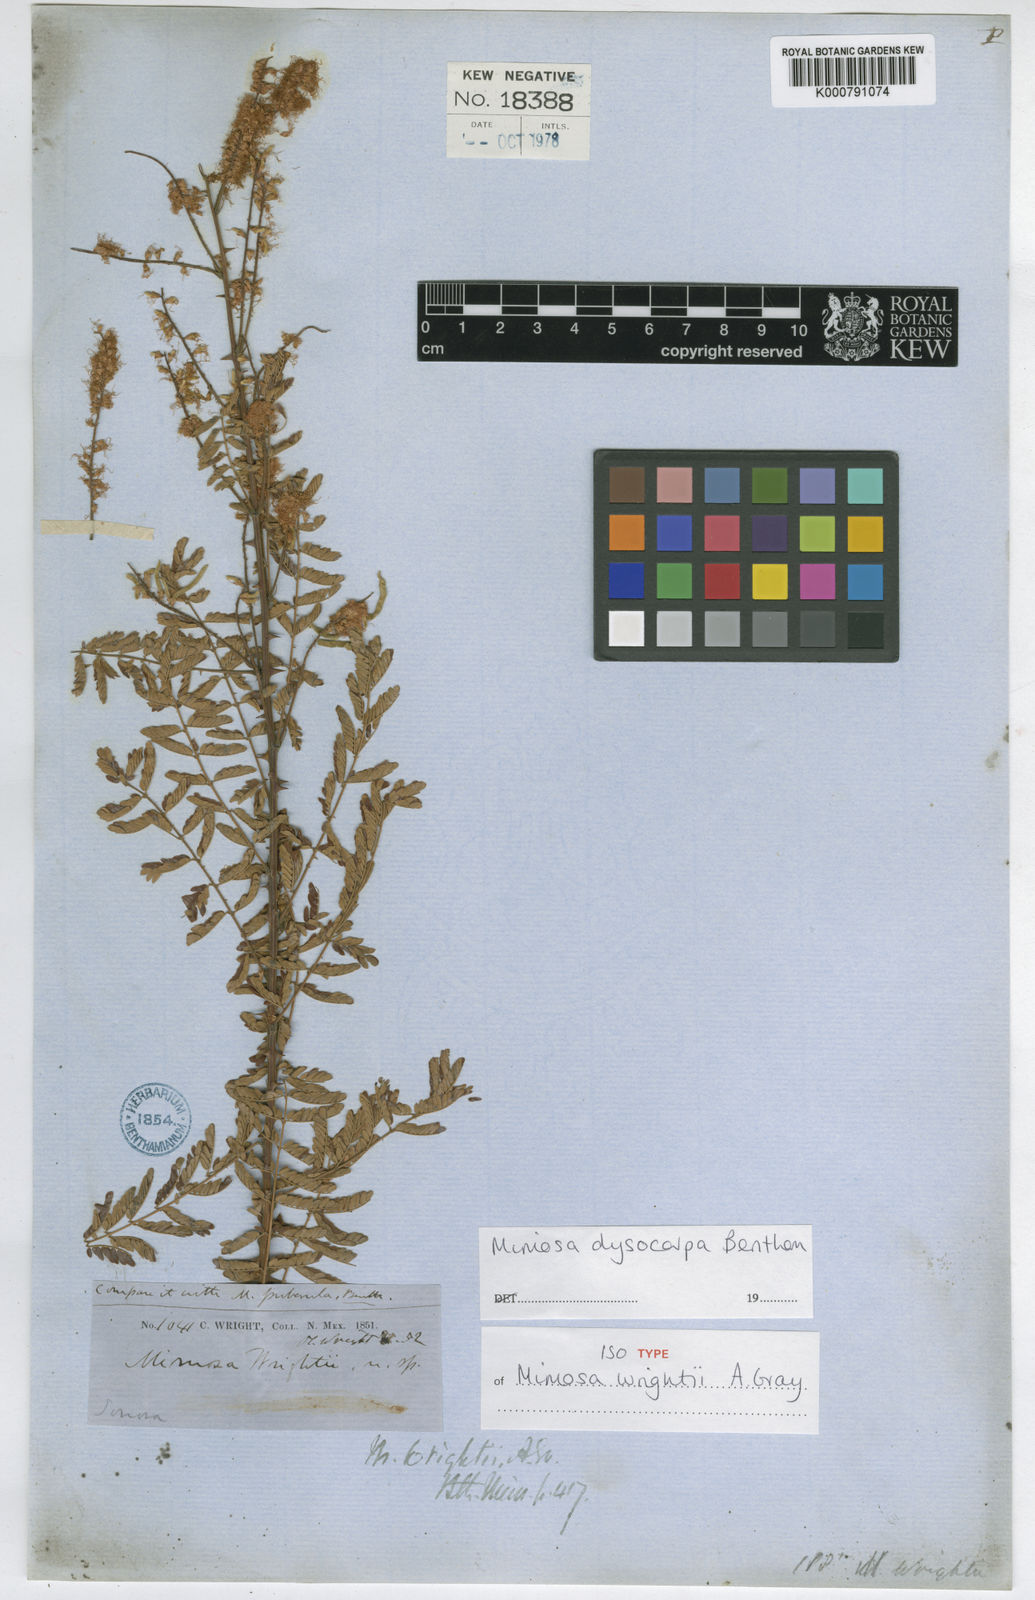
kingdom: Plantae
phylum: Tracheophyta
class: Magnoliopsida
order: Fabales
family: Fabaceae
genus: Mimosa
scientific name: Mimosa dysocarpa
